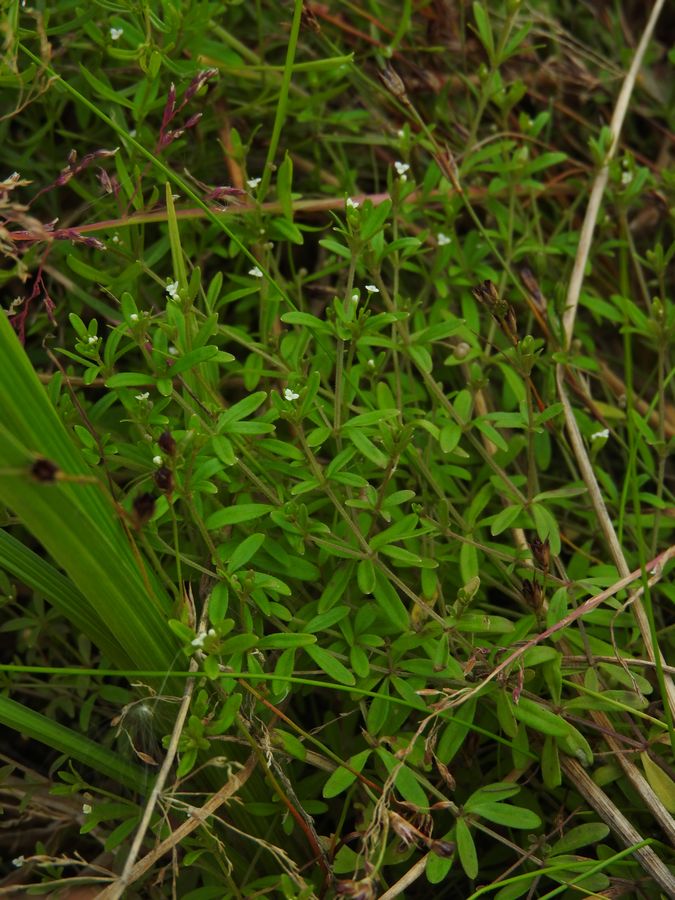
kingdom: Plantae
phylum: Tracheophyta
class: Magnoliopsida
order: Gentianales
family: Rubiaceae
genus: Galium
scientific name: Galium trifidum
